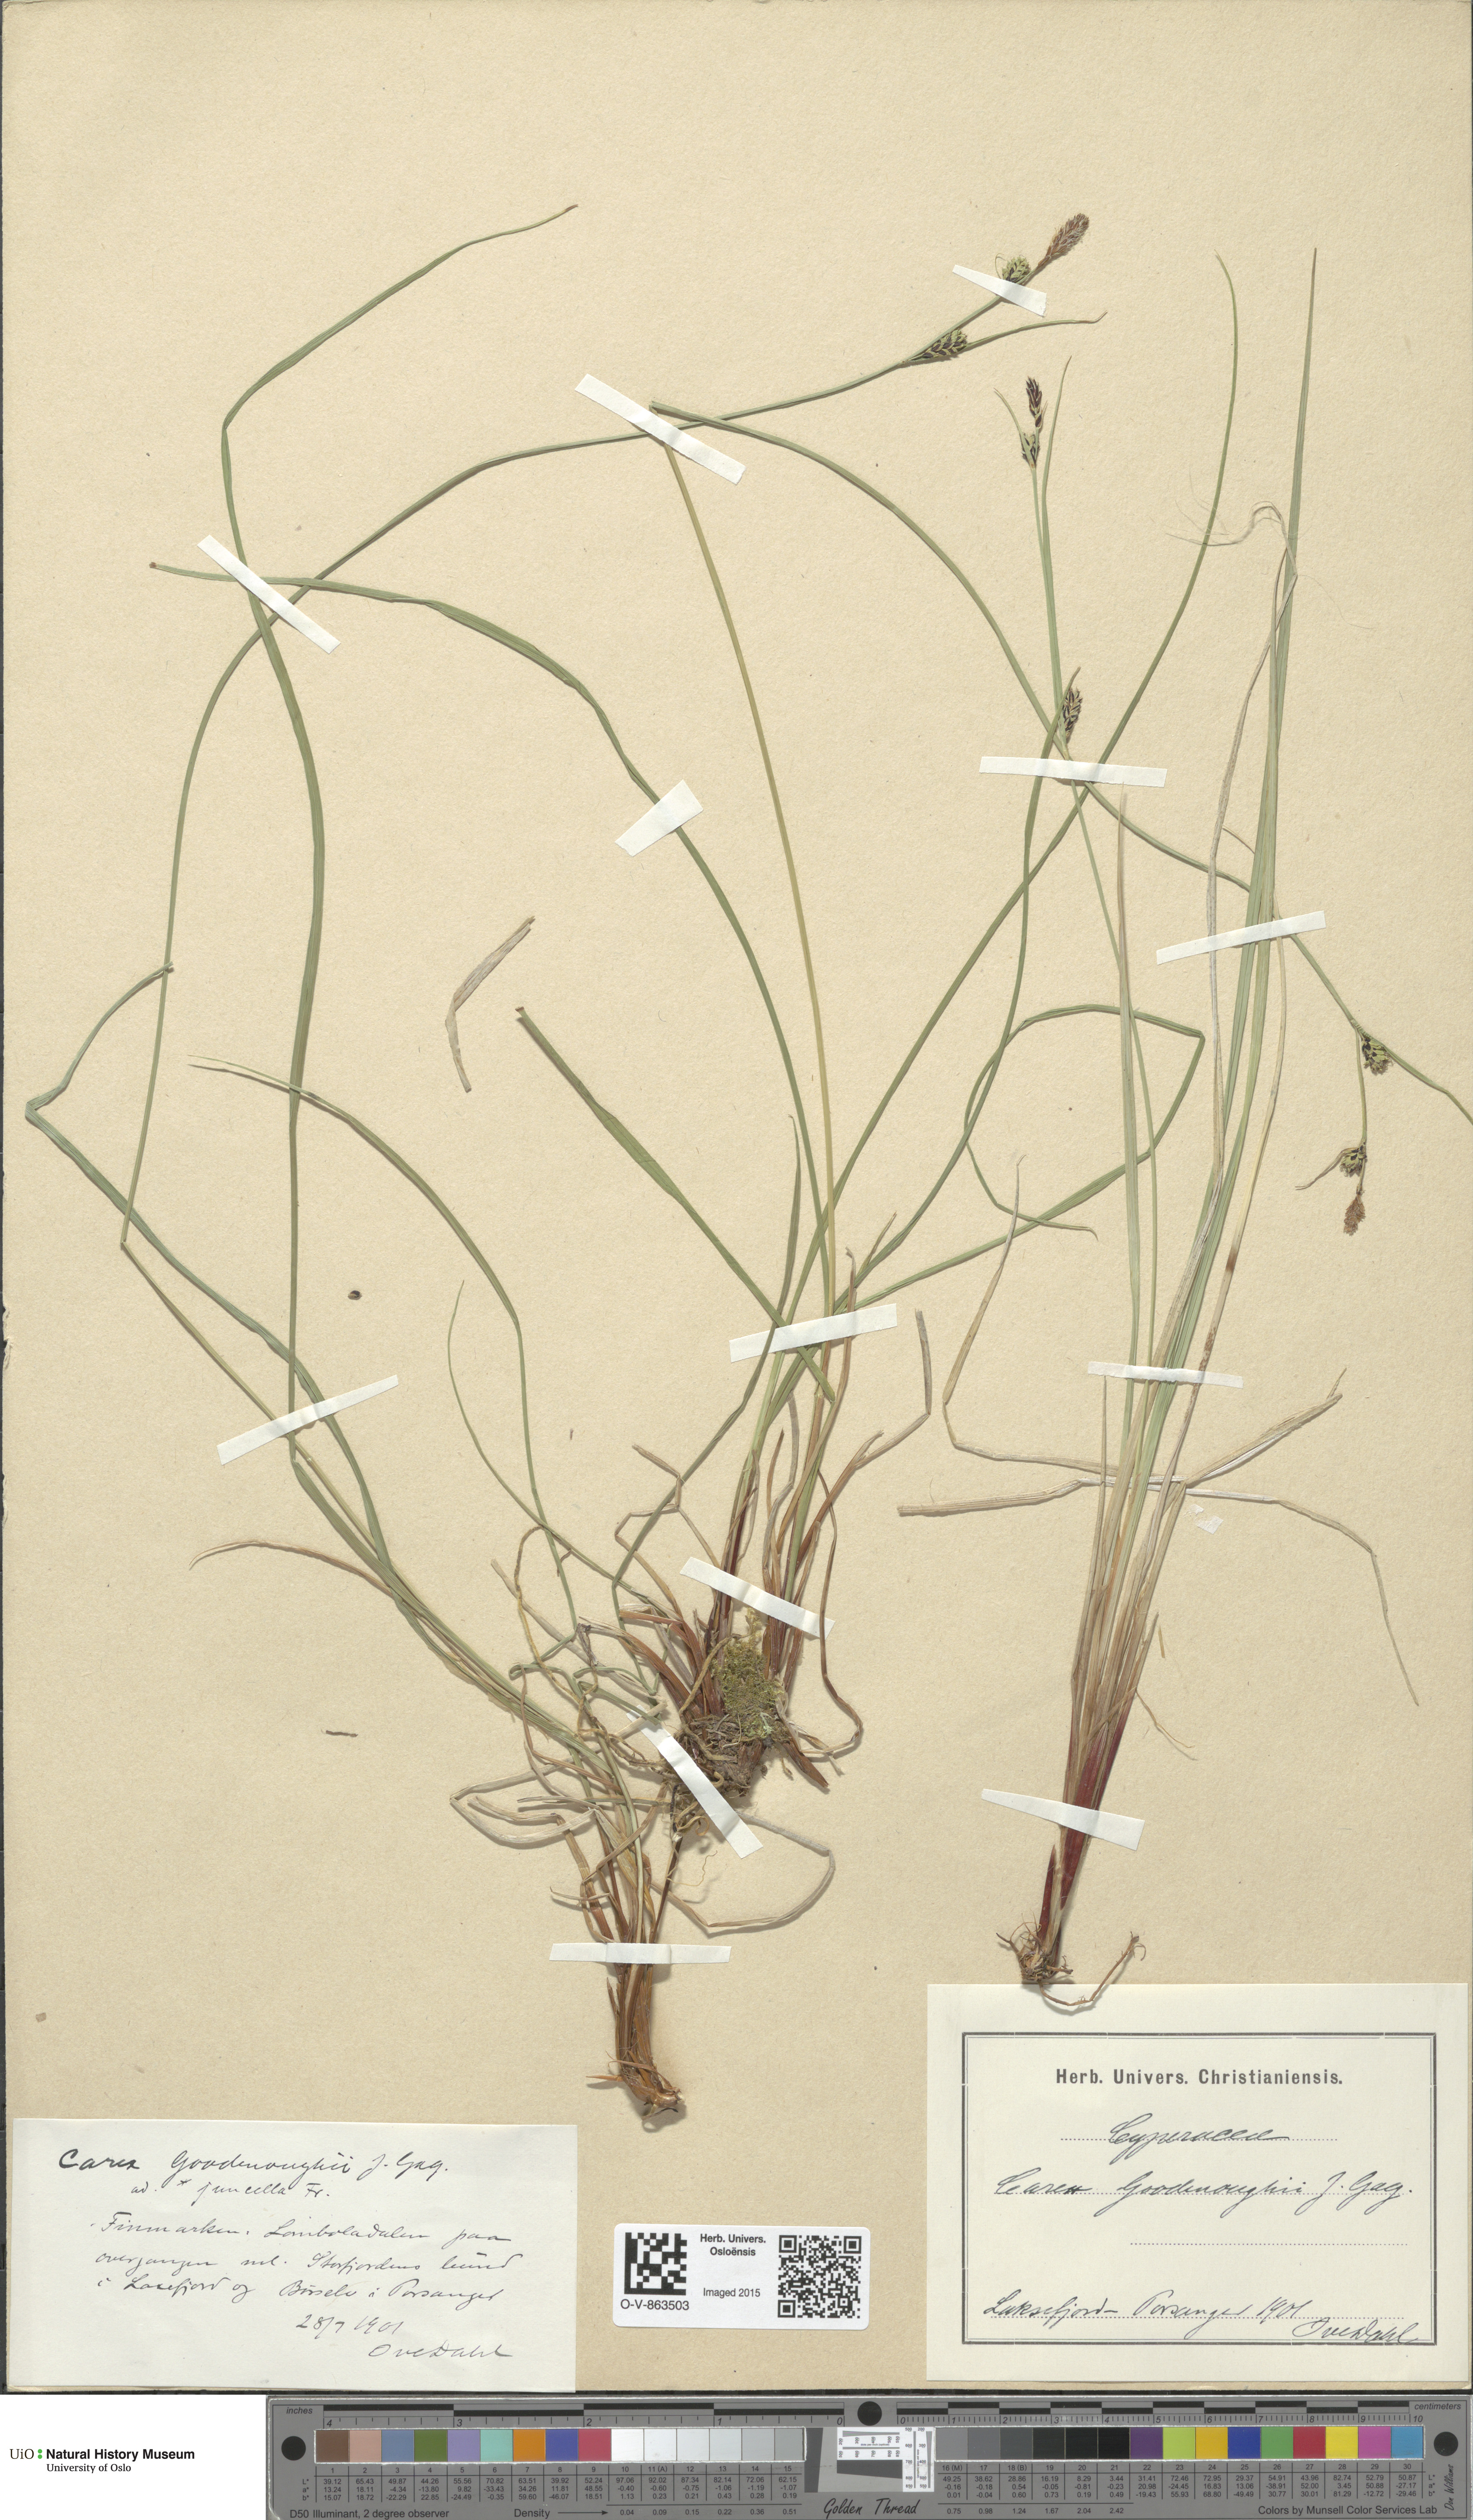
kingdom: Plantae
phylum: Tracheophyta
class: Liliopsida
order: Poales
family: Cyperaceae
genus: Carex
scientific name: Carex nigra
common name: Common sedge
